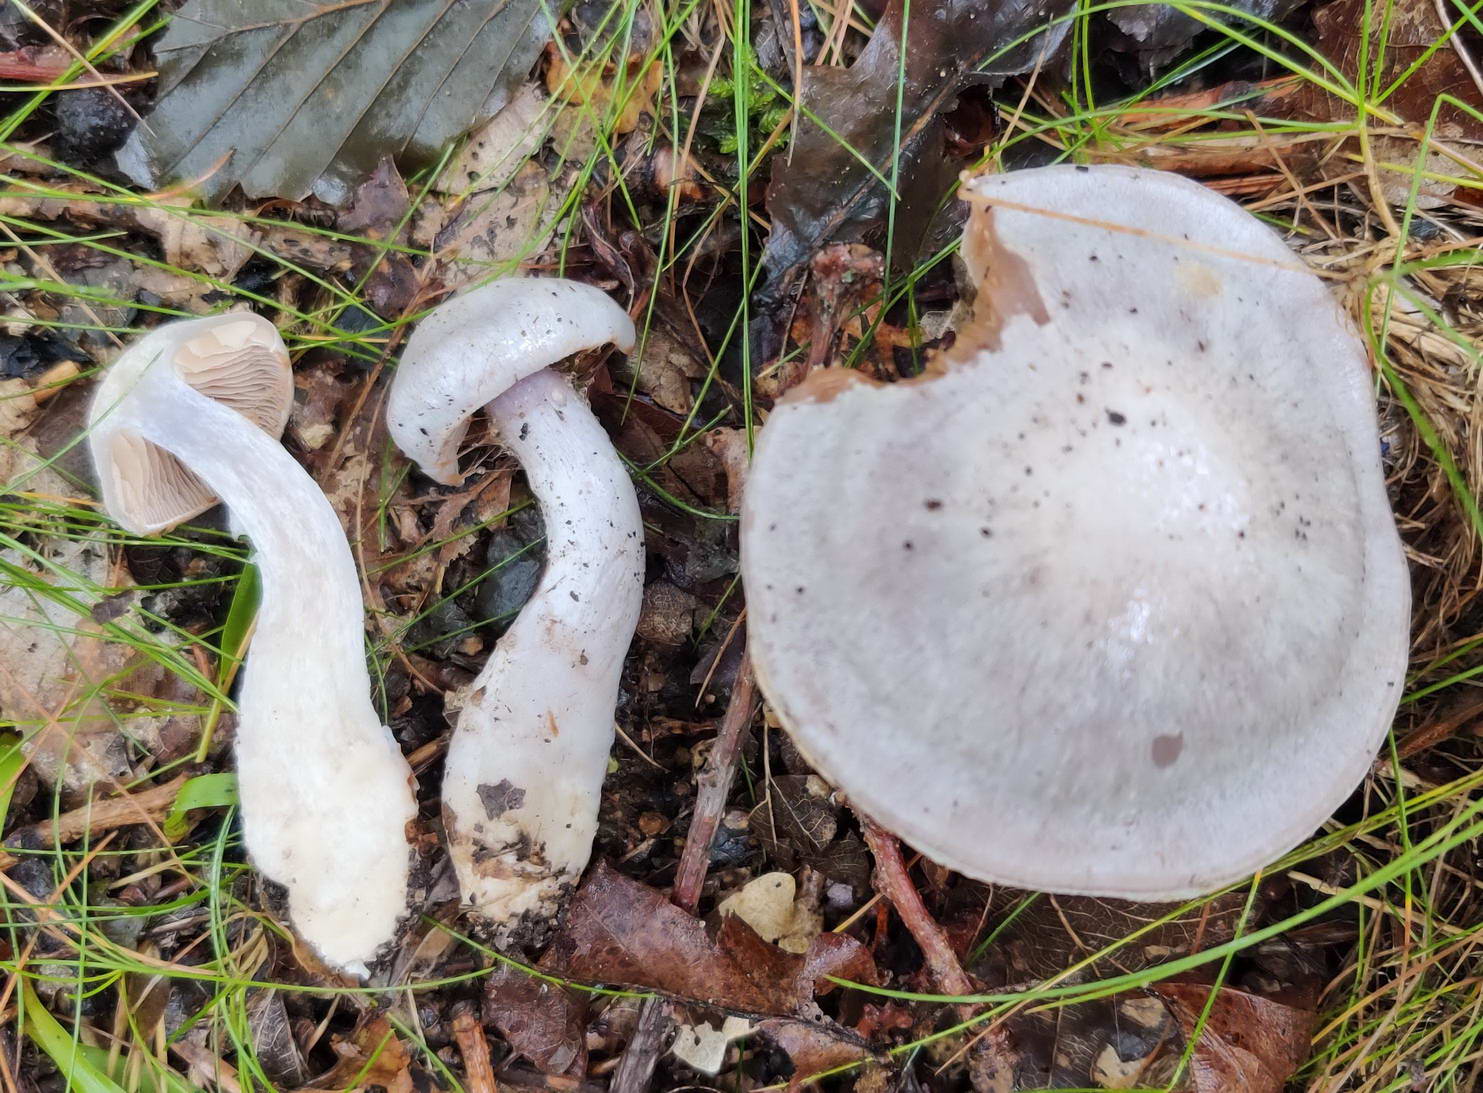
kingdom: Fungi
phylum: Basidiomycota
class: Agaricomycetes
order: Agaricales
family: Cortinariaceae
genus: Cortinarius
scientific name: Cortinarius alboviolaceus
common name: lysviolet slørhat
